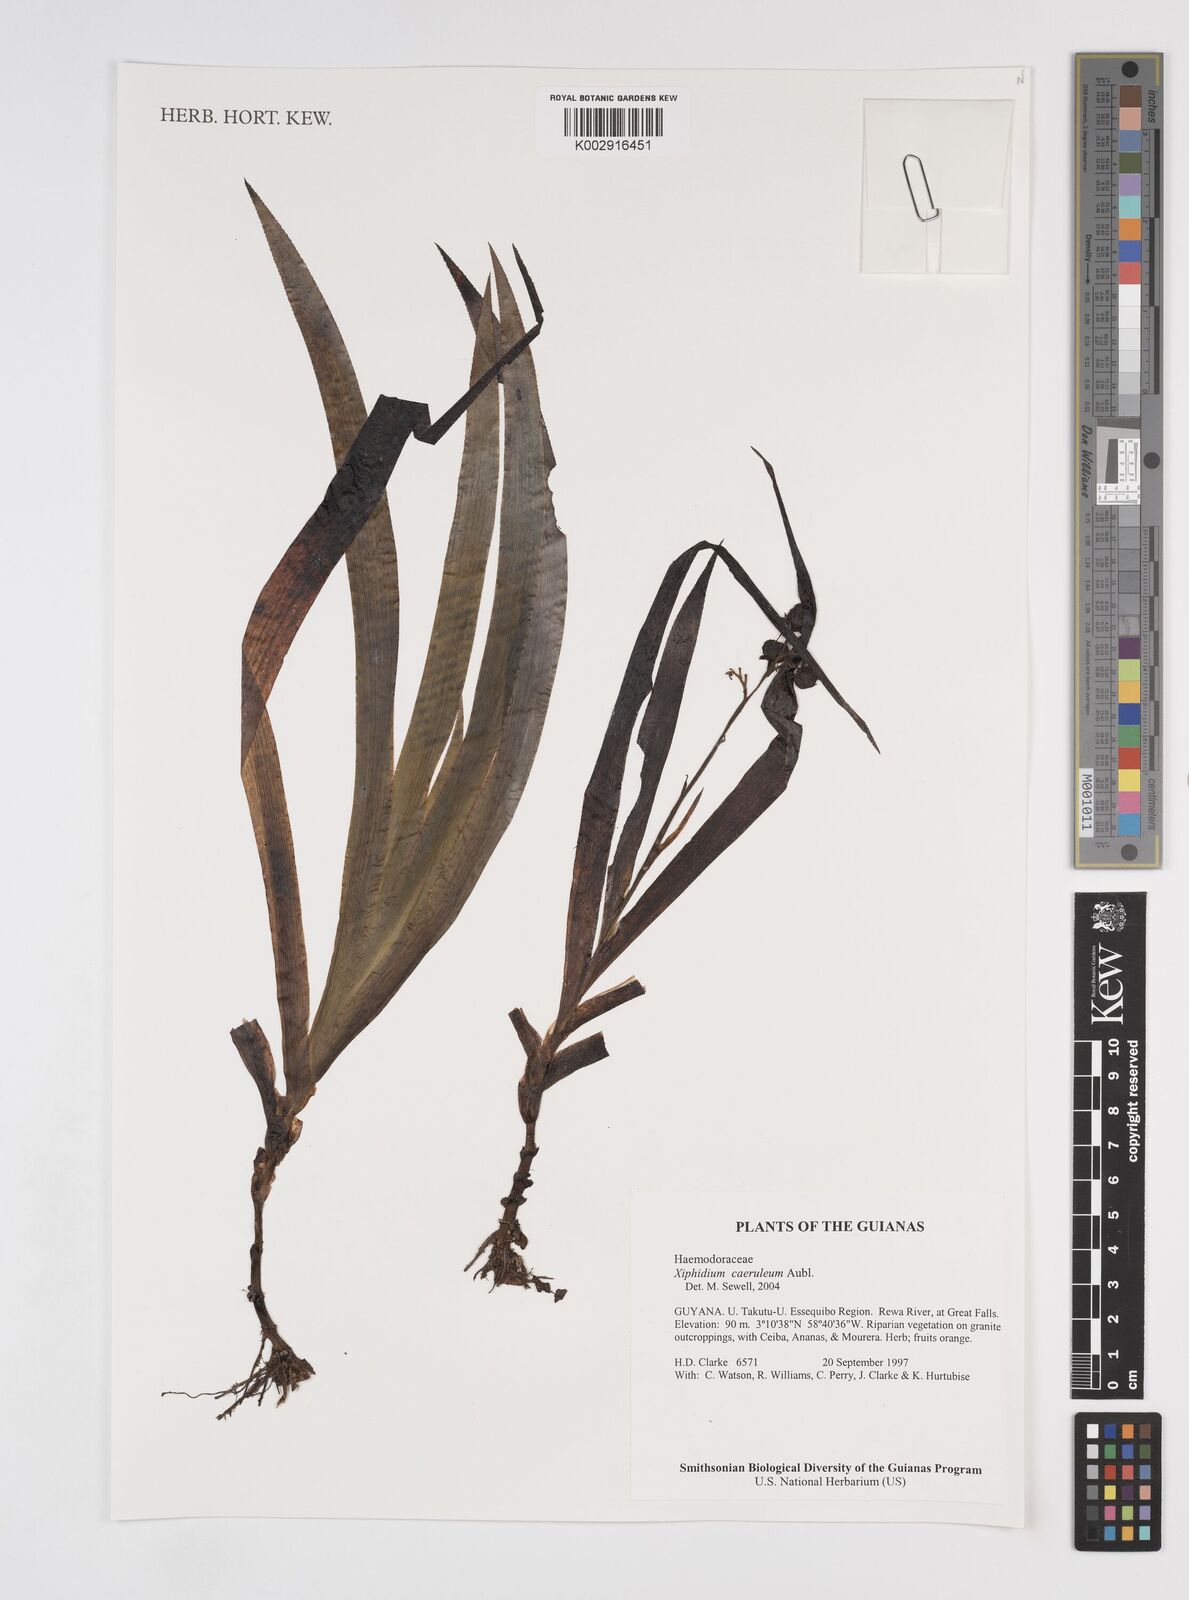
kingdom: Plantae
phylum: Tracheophyta
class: Liliopsida
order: Commelinales
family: Haemodoraceae
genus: Xiphidium
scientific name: Xiphidium caeruleum
